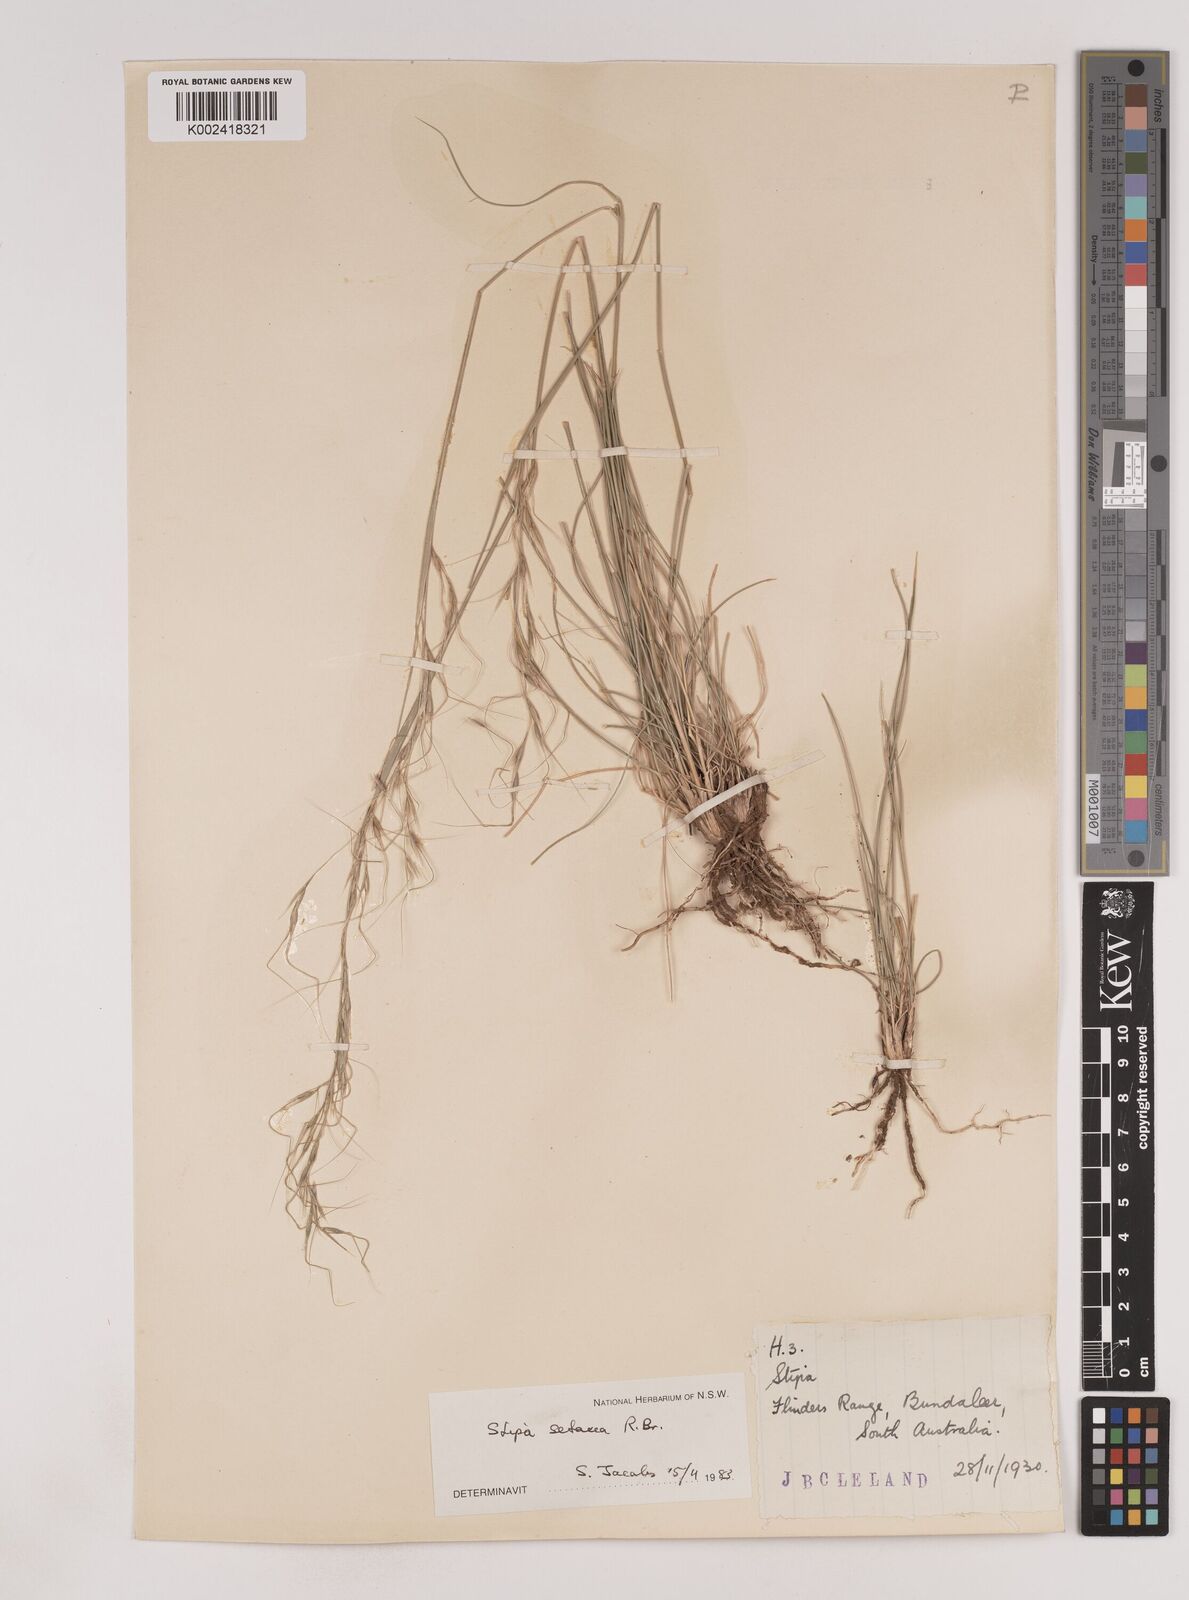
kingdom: Plantae
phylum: Tracheophyta
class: Liliopsida
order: Poales
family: Poaceae
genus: Piptochaetium
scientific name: Piptochaetium
